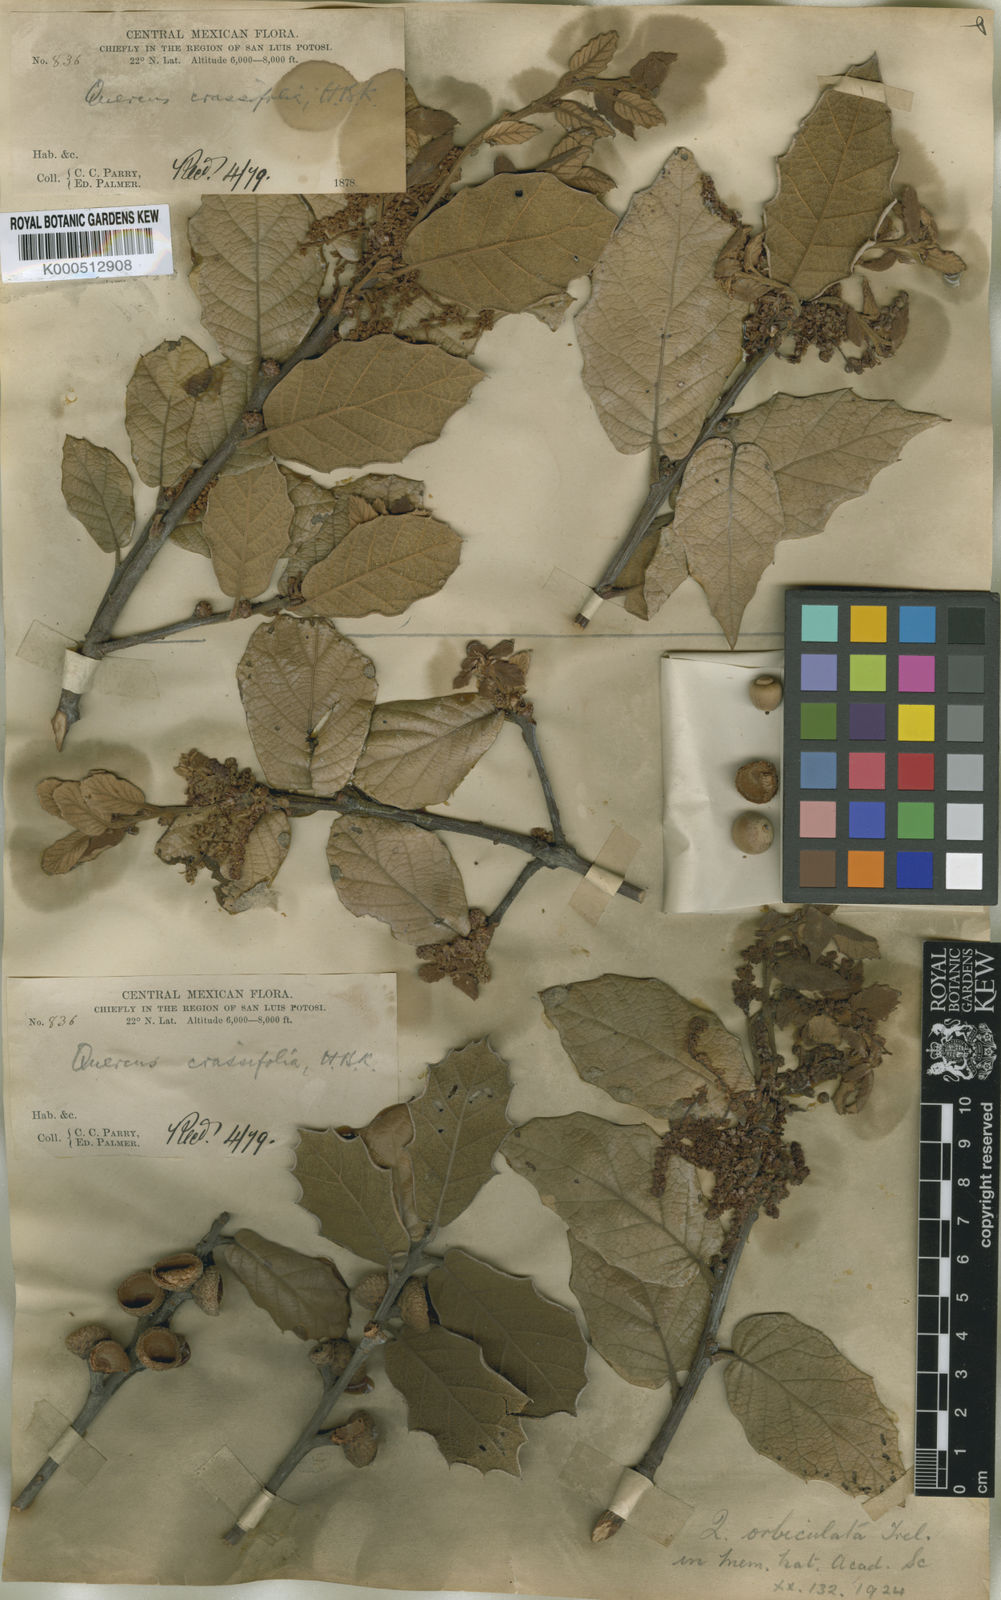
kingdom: Plantae
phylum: Tracheophyta
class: Magnoliopsida
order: Fagales
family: Fagaceae
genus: Quercus
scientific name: Quercus crassifolia
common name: Leather leaf mexican oak
